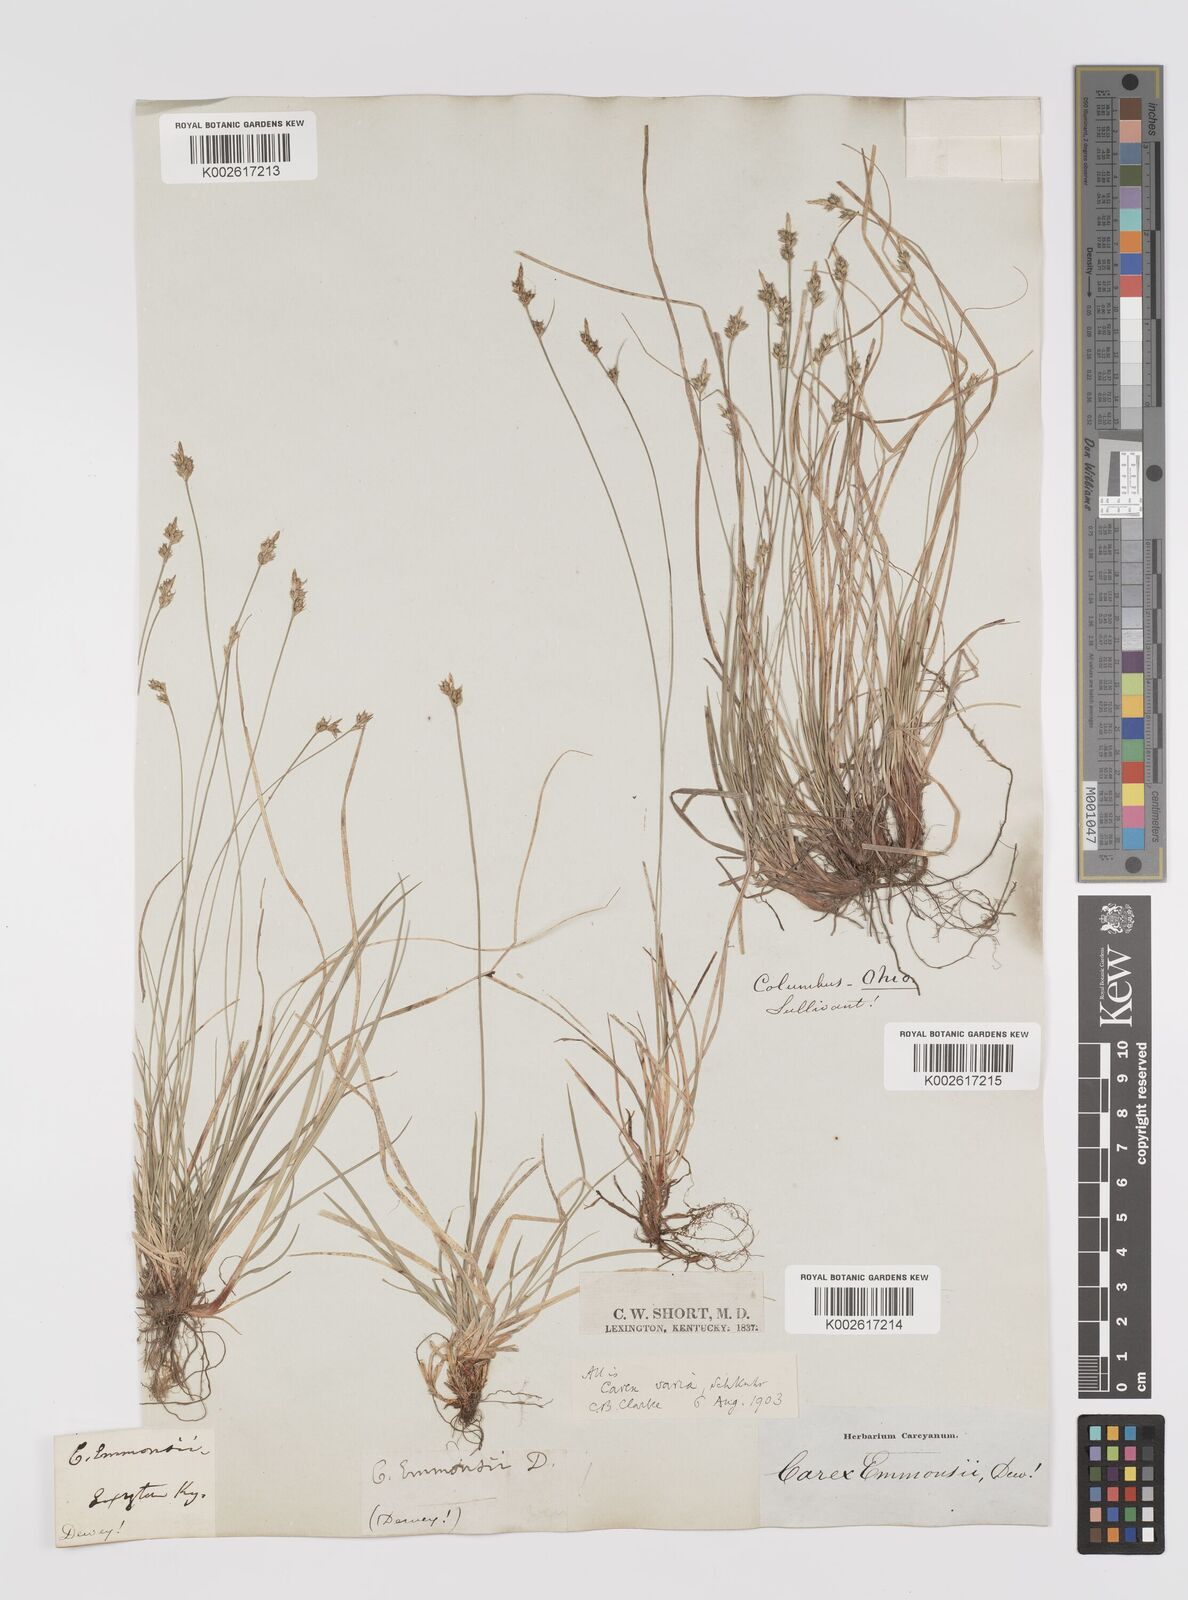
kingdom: Plantae
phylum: Tracheophyta
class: Liliopsida
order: Poales
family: Cyperaceae
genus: Carex
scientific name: Carex albicans
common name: Bellow-beaked sedge
